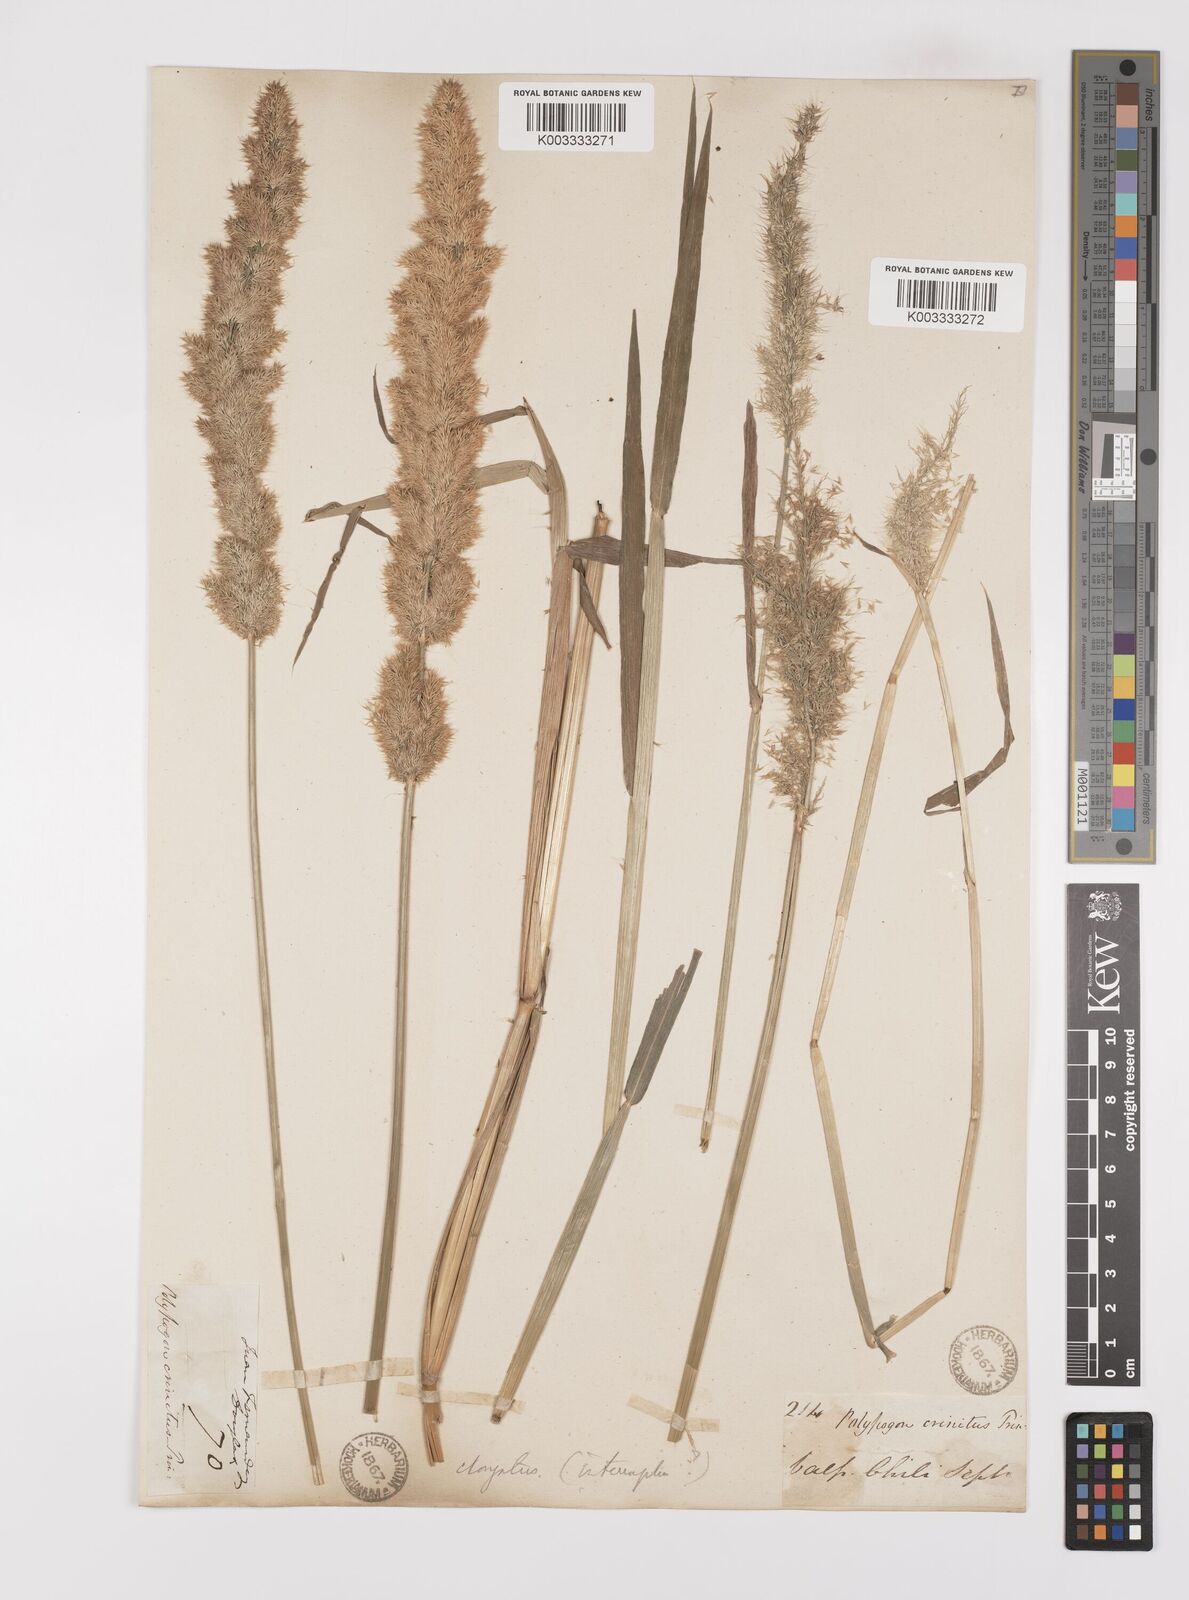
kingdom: Plantae
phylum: Tracheophyta
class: Liliopsida
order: Poales
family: Poaceae
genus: Polypogon
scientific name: Polypogon interruptus
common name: Ditch polypogon
